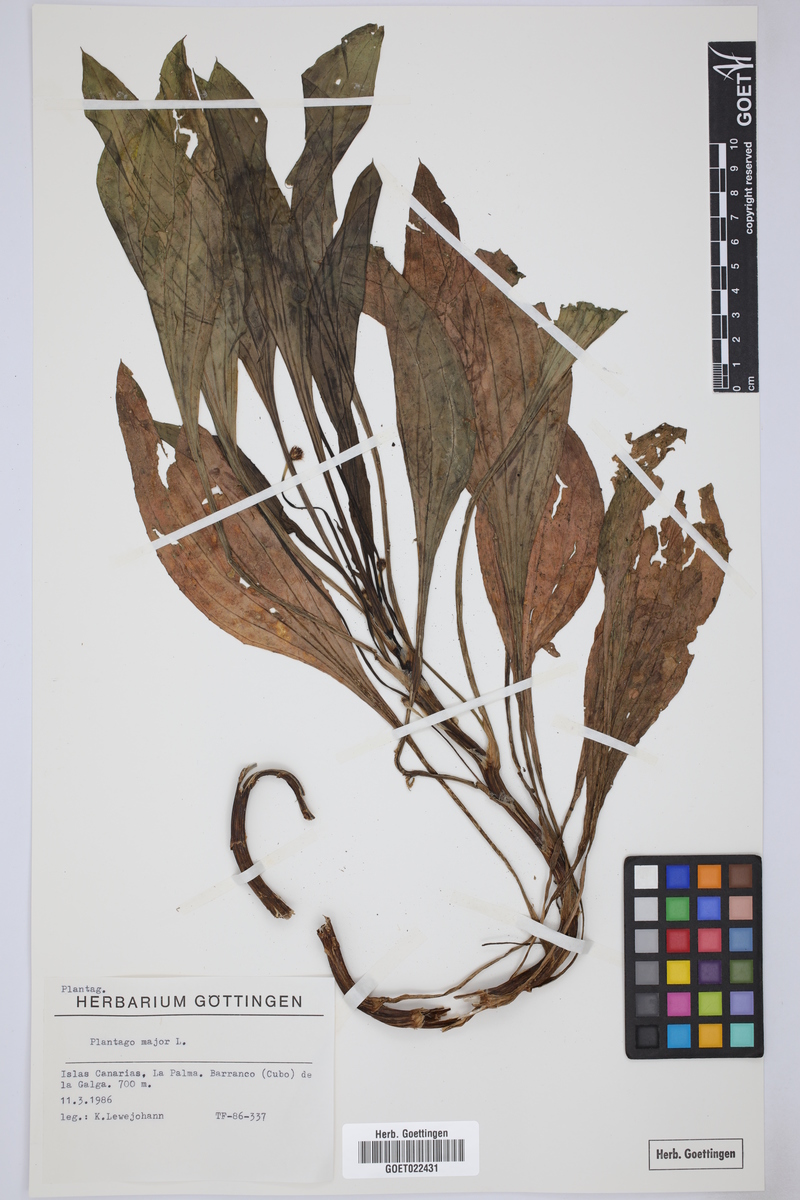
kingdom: Plantae
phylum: Tracheophyta
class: Magnoliopsida
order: Lamiales
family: Plantaginaceae
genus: Plantago
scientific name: Plantago major
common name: Common plantain
